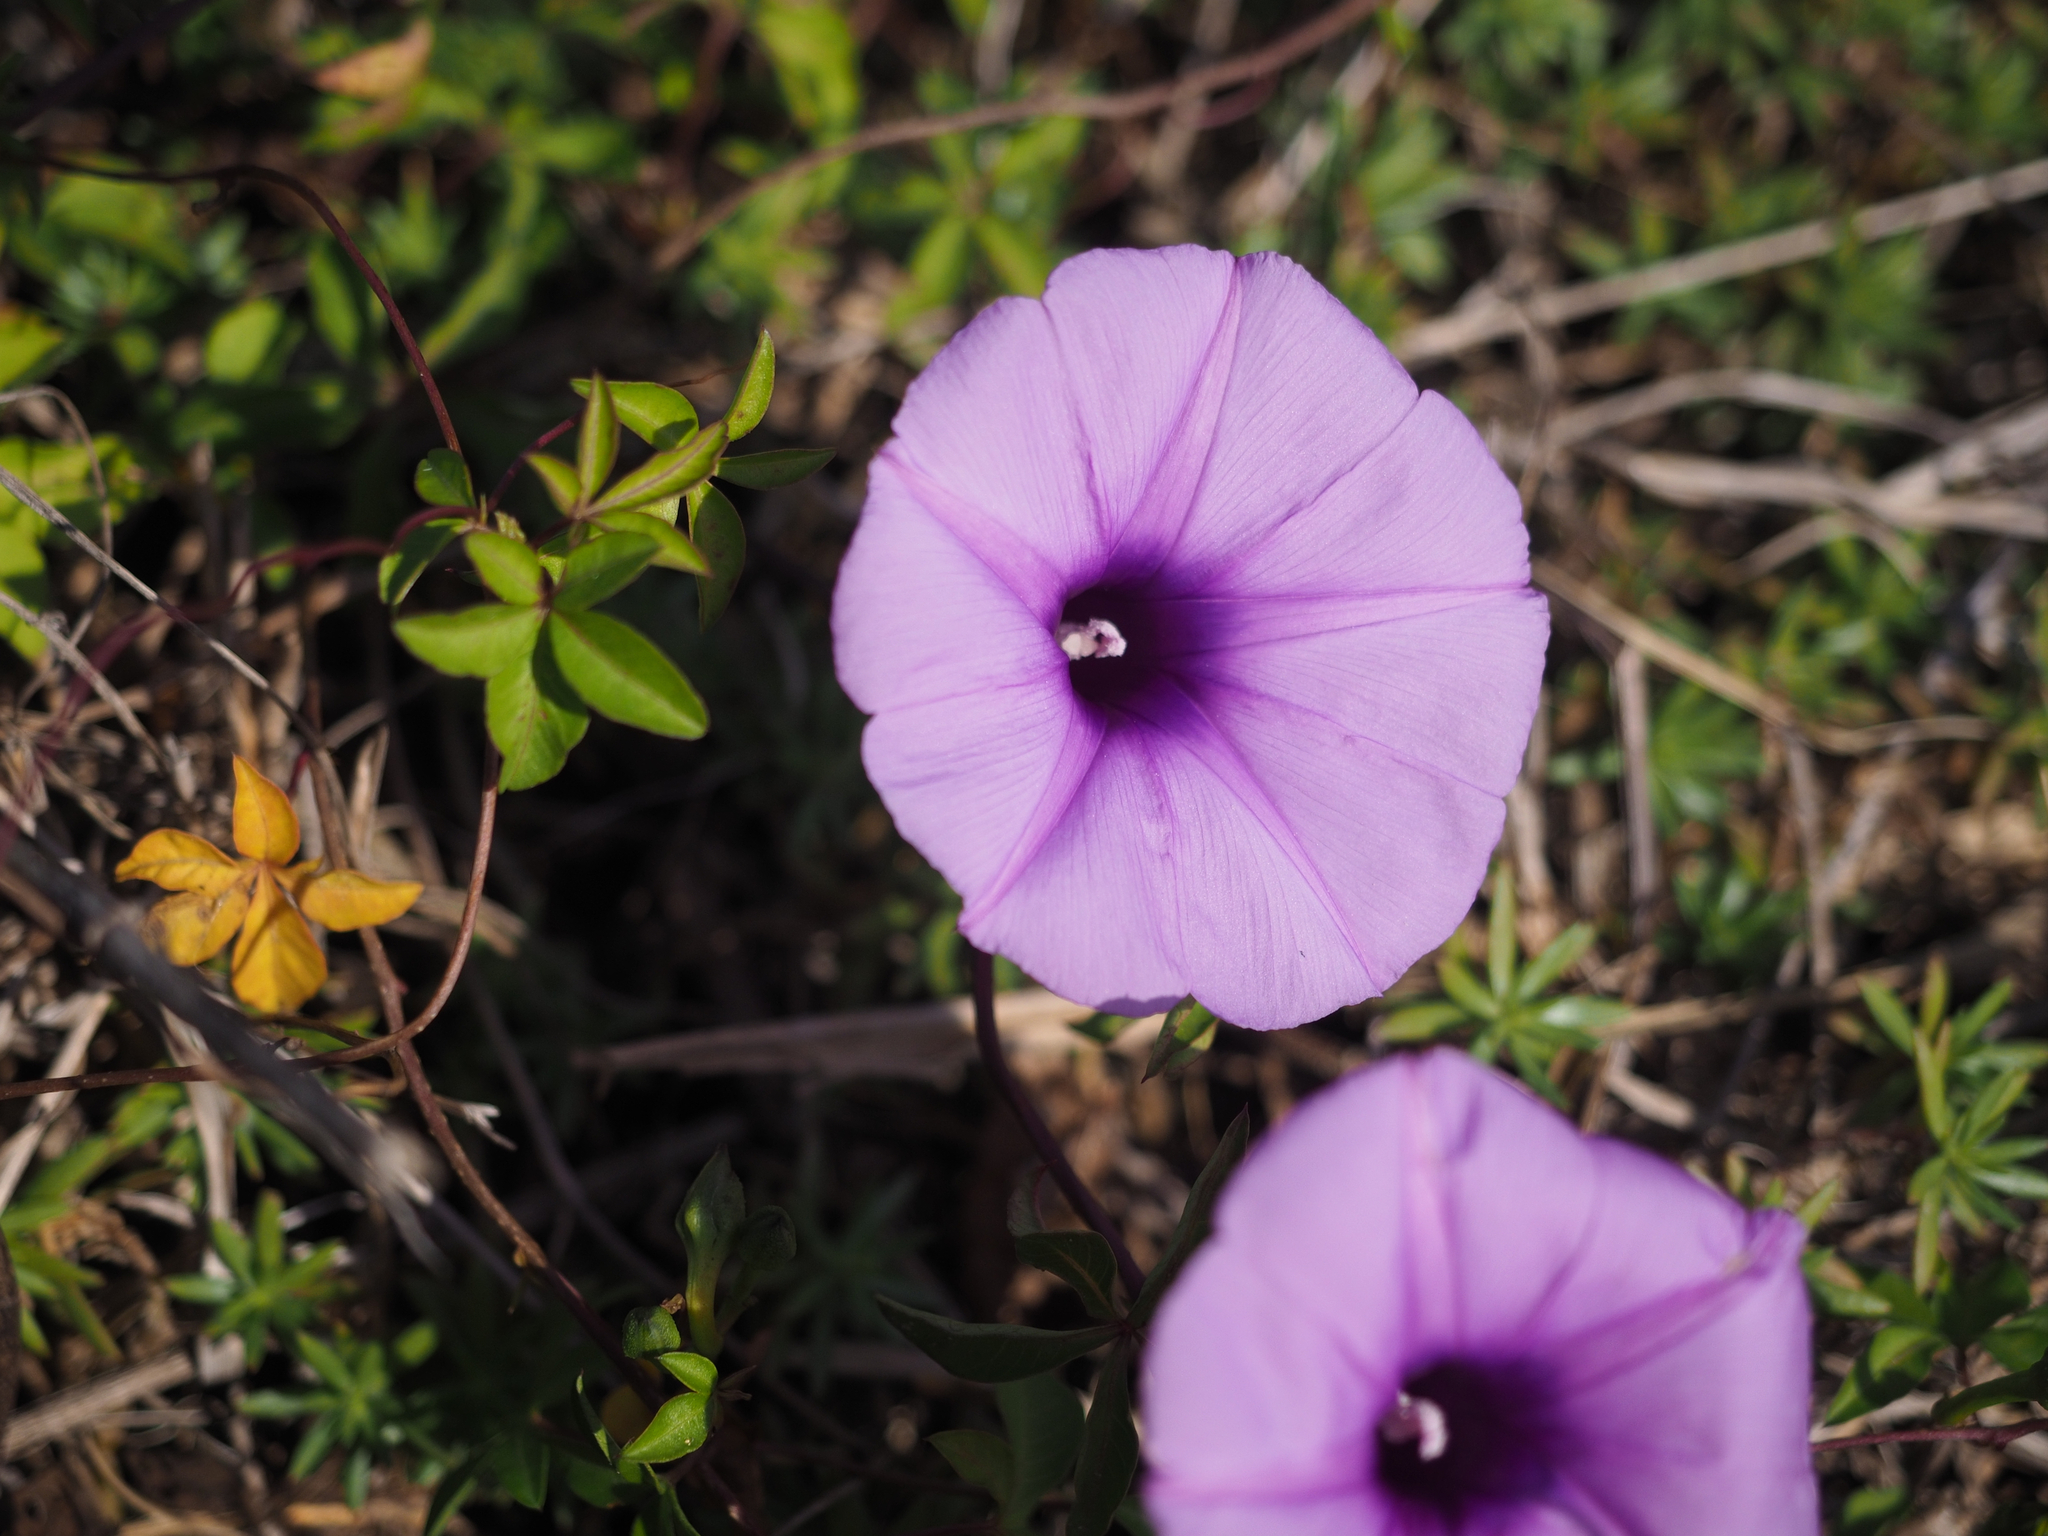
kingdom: Plantae
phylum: Tracheophyta
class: Magnoliopsida
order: Solanales
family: Convolvulaceae
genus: Ipomoea
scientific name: Ipomoea cairica
